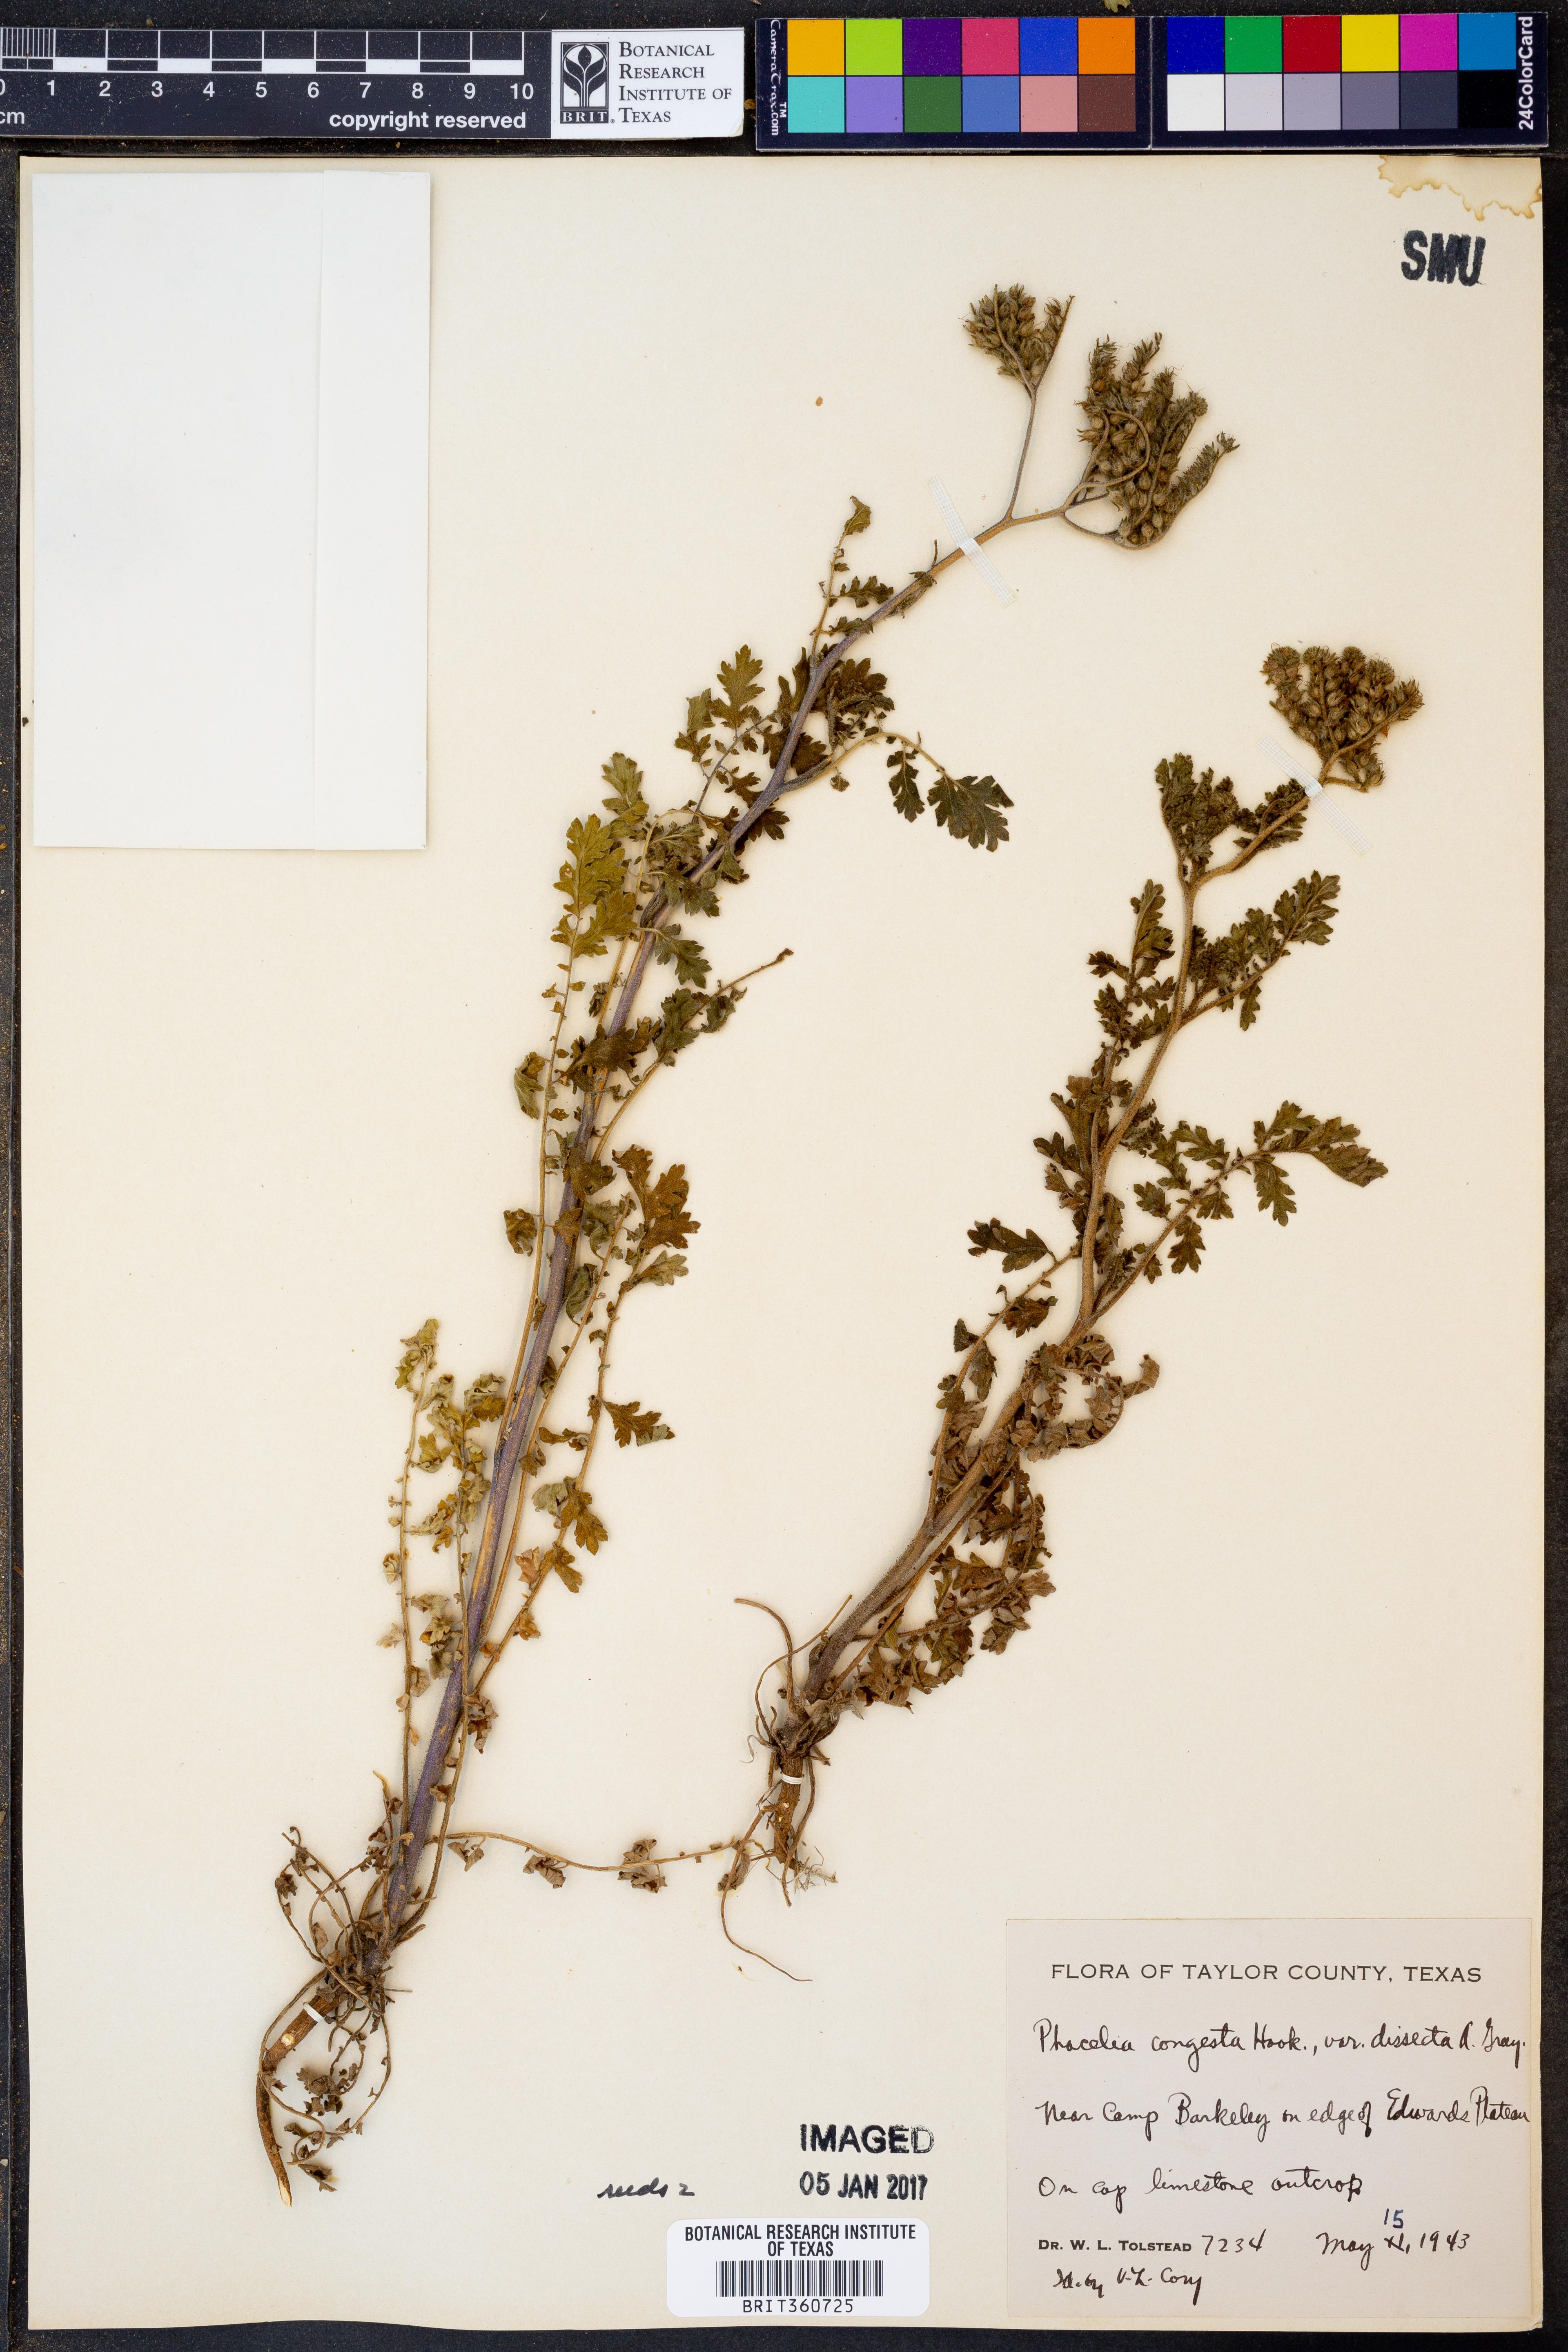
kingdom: Plantae
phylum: Tracheophyta
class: Magnoliopsida
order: Boraginales
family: Hydrophyllaceae
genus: Phacelia
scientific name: Phacelia congesta
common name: Blue curls
